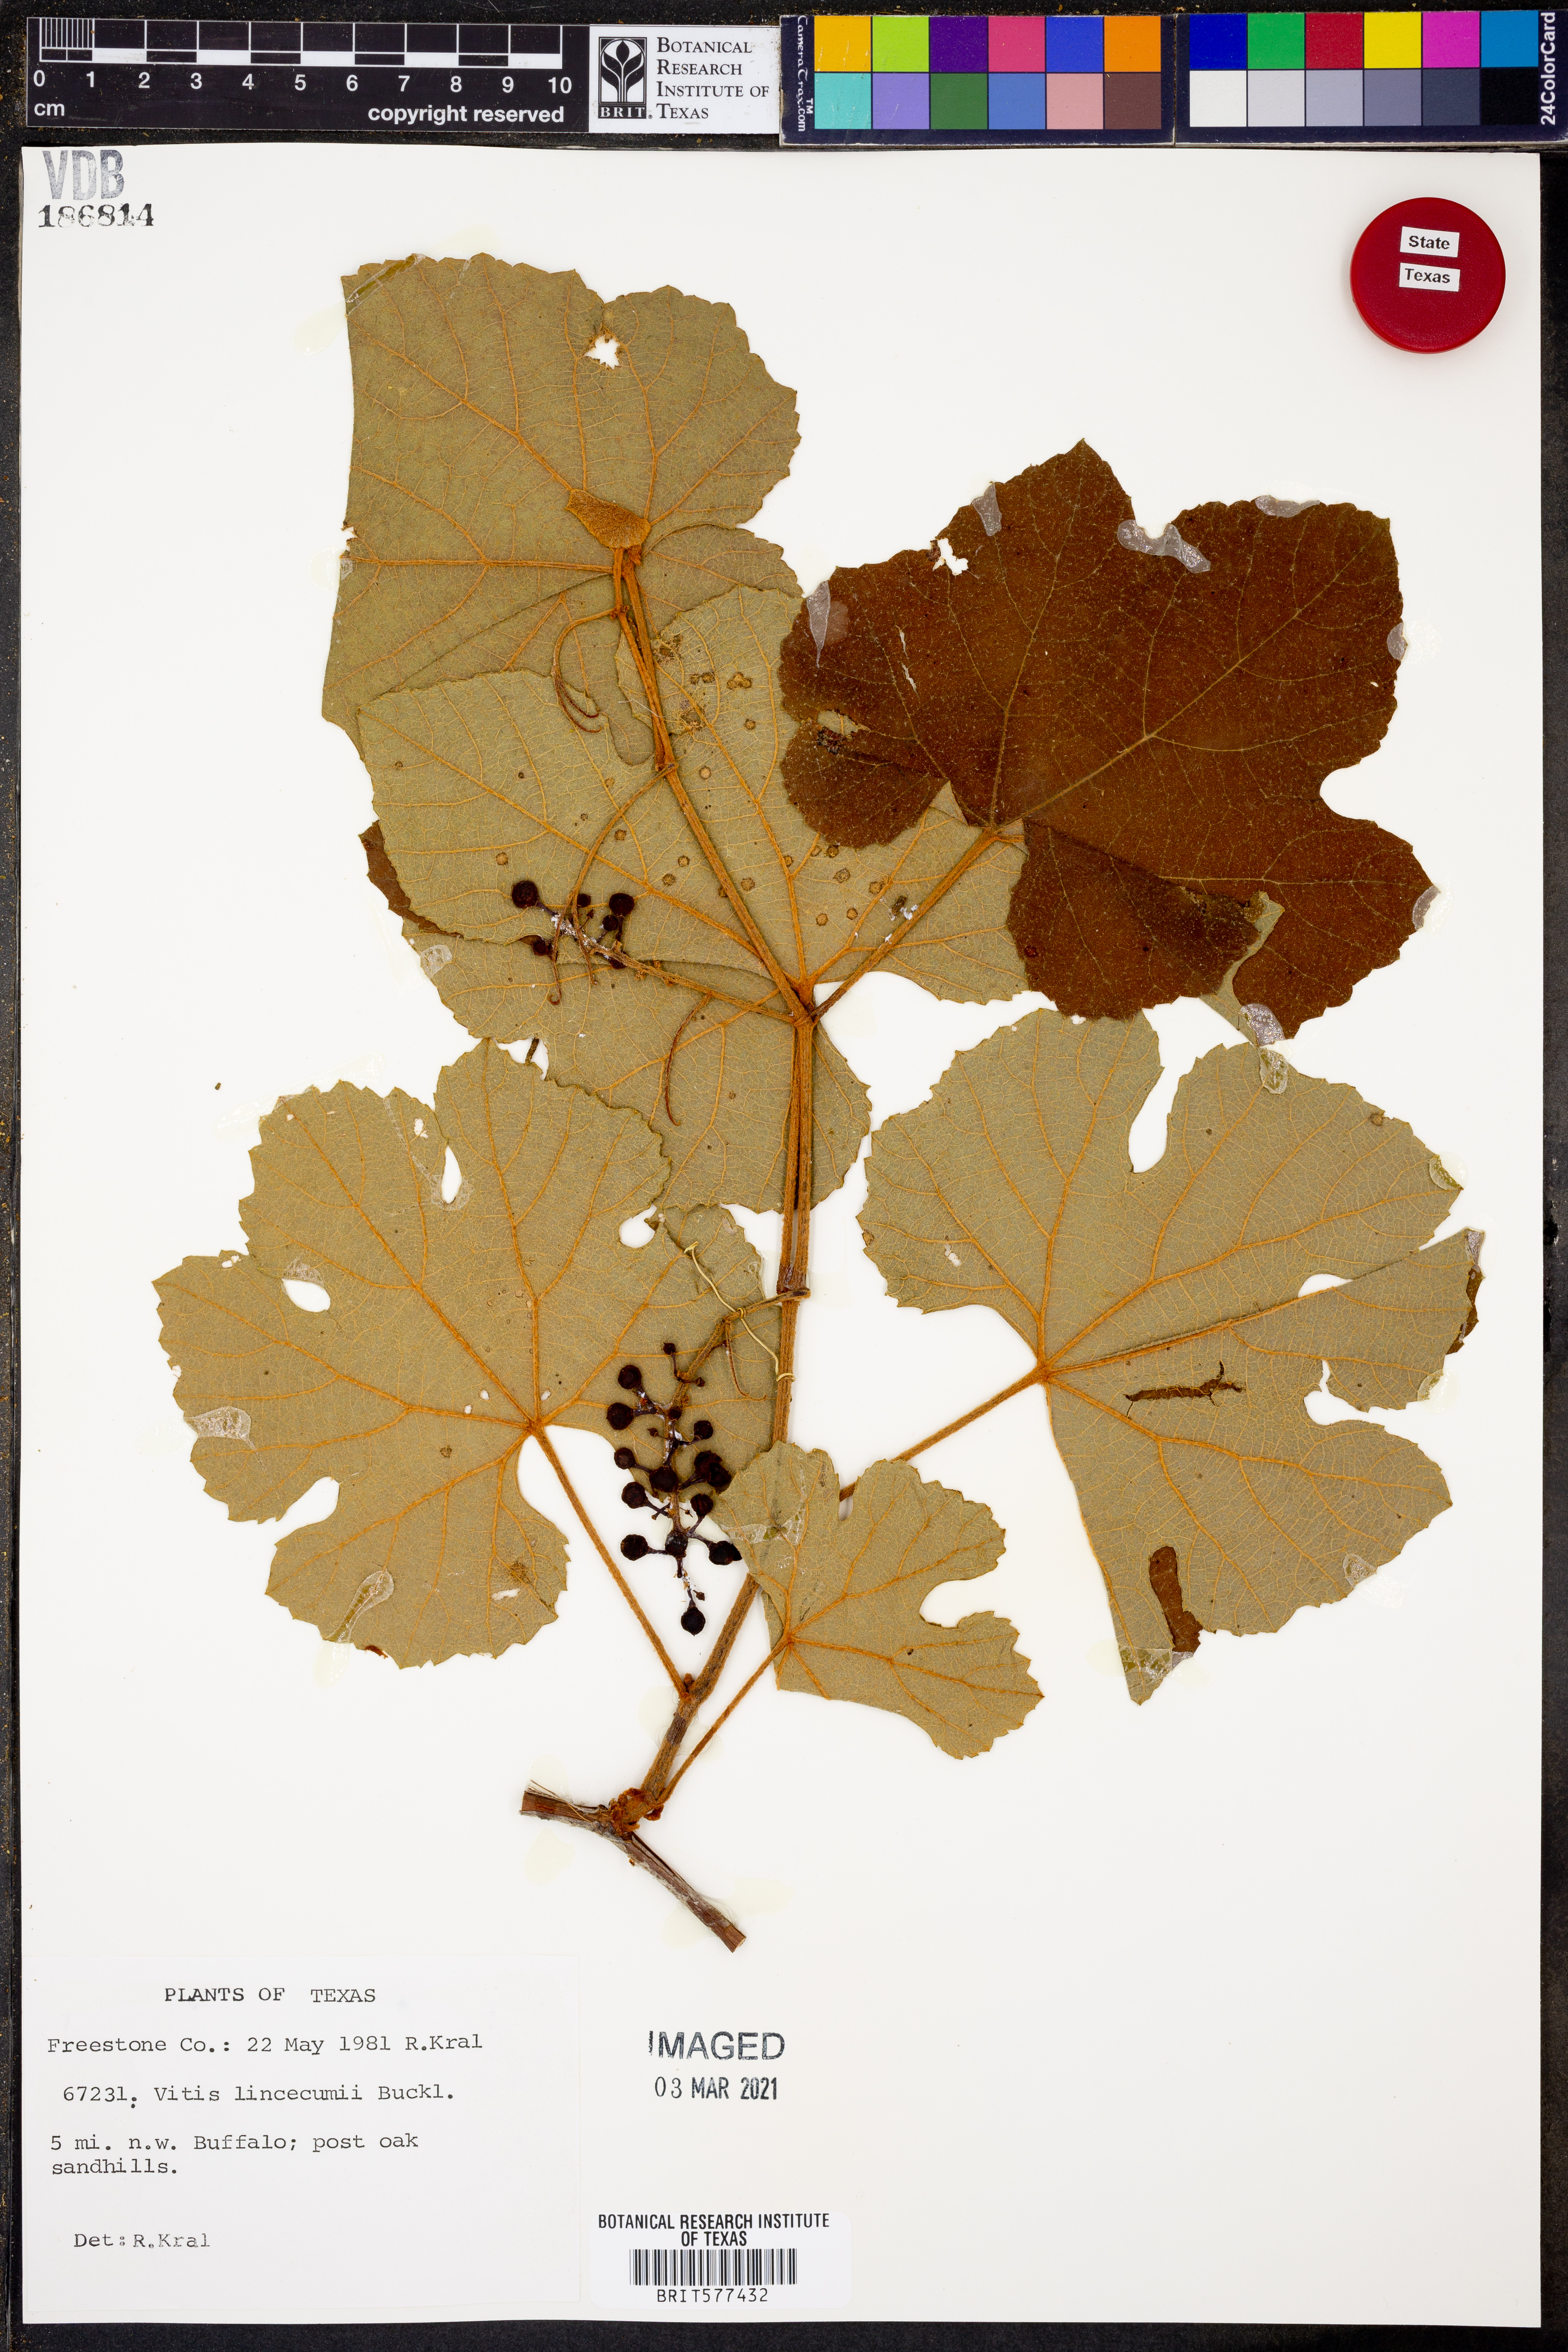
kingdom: Plantae
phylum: Tracheophyta
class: Magnoliopsida
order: Vitales
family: Vitaceae
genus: Vitis
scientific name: Vitis aestivalis
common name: Pigeon grape
